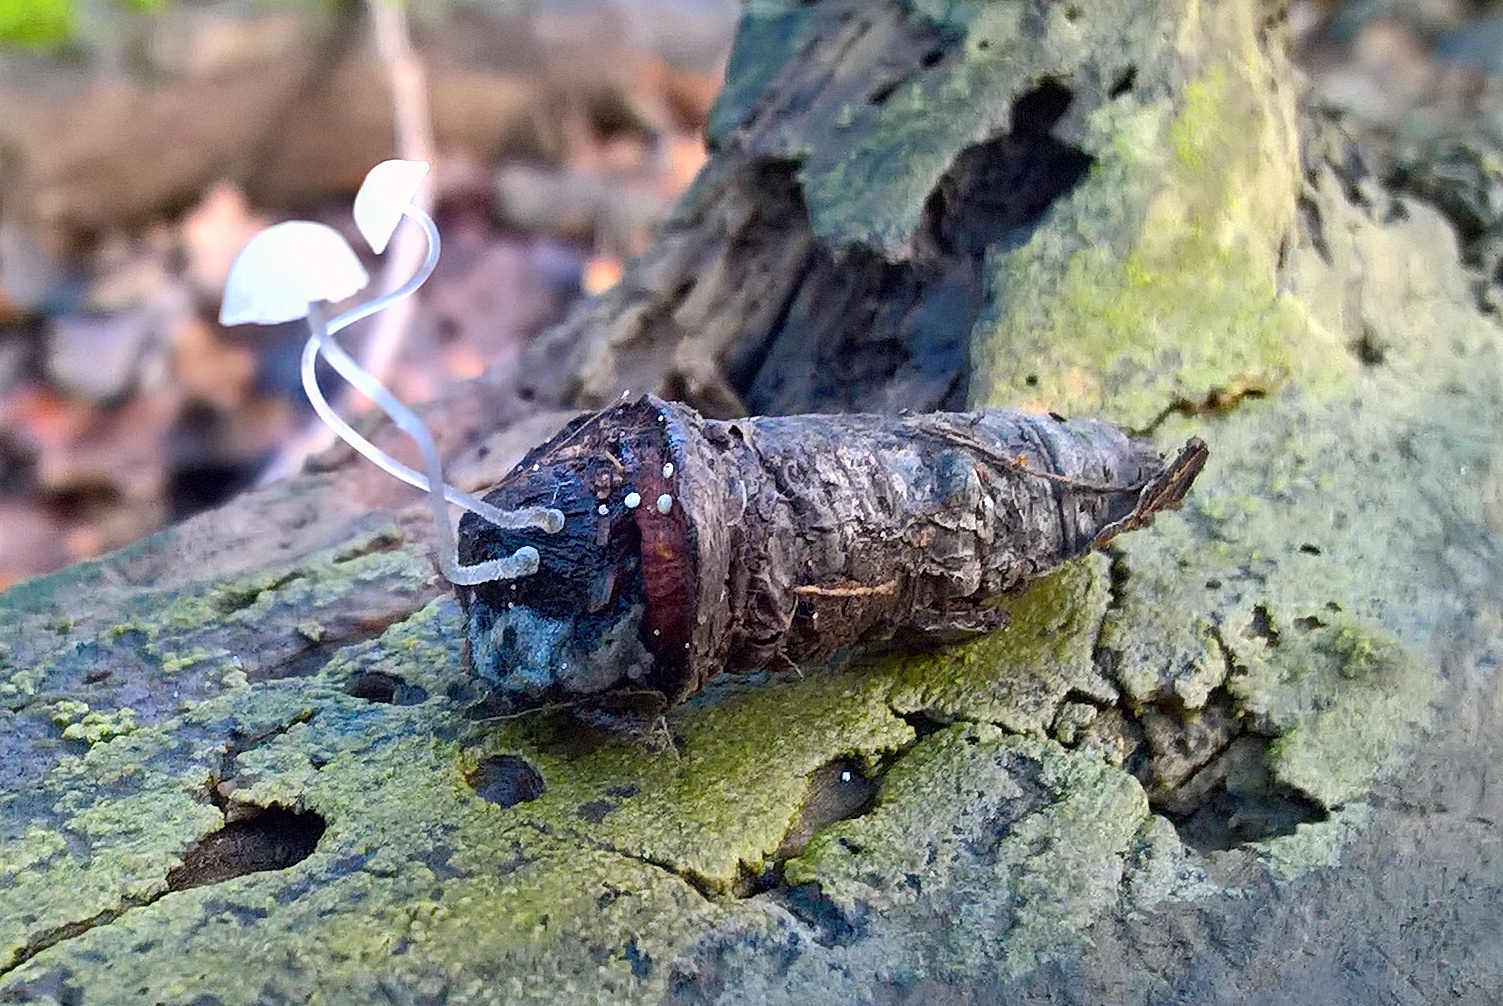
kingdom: Fungi
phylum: Basidiomycota
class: Agaricomycetes
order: Agaricales
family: Mycenaceae
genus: Mycena
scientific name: Mycena tenerrima
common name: pudret huesvamp
